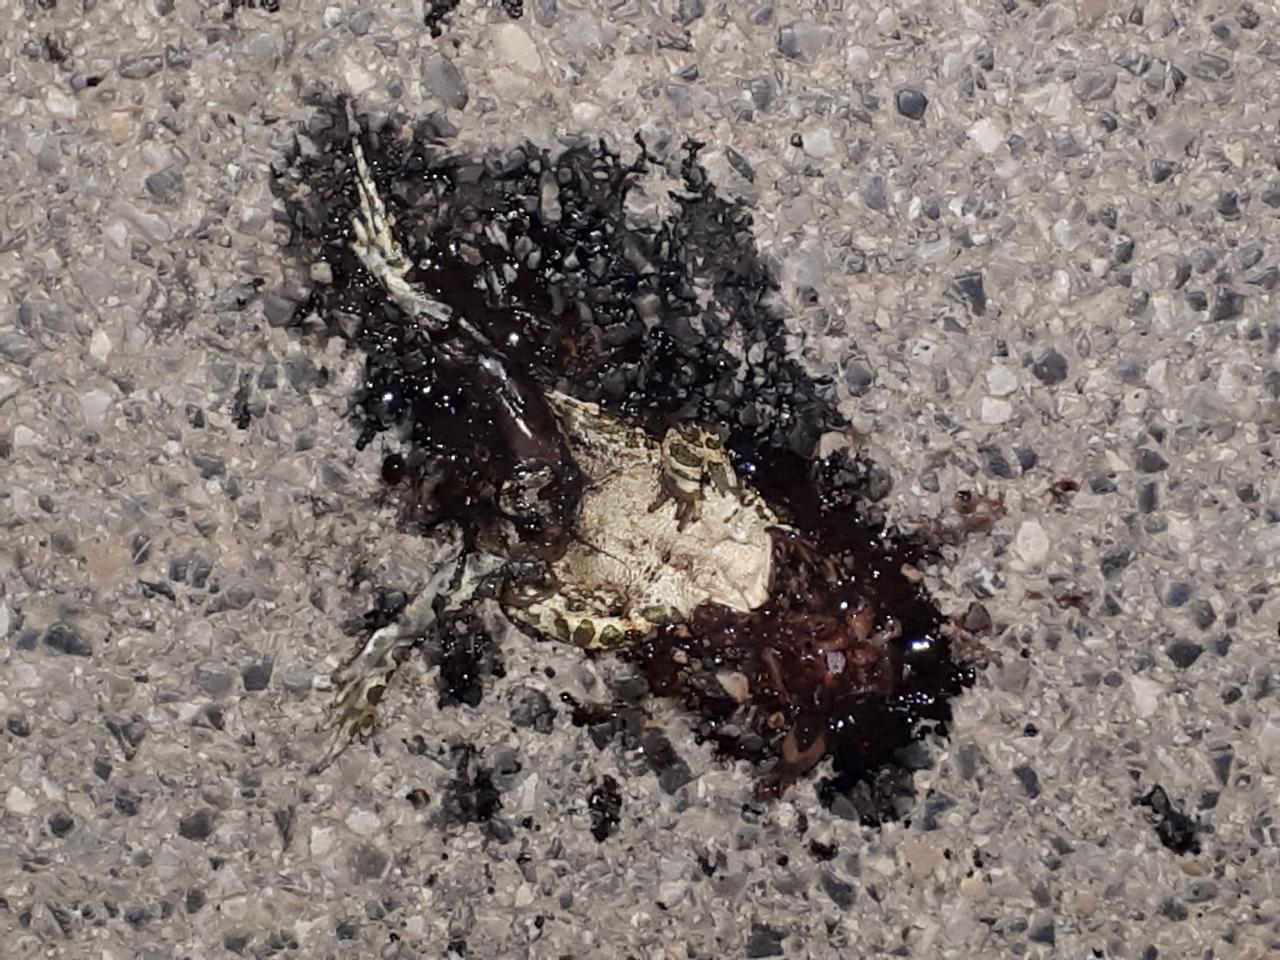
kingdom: Animalia
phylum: Chordata
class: Amphibia
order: Anura
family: Bufonidae
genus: Bufotes
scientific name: Bufotes viridis
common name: European green toad
